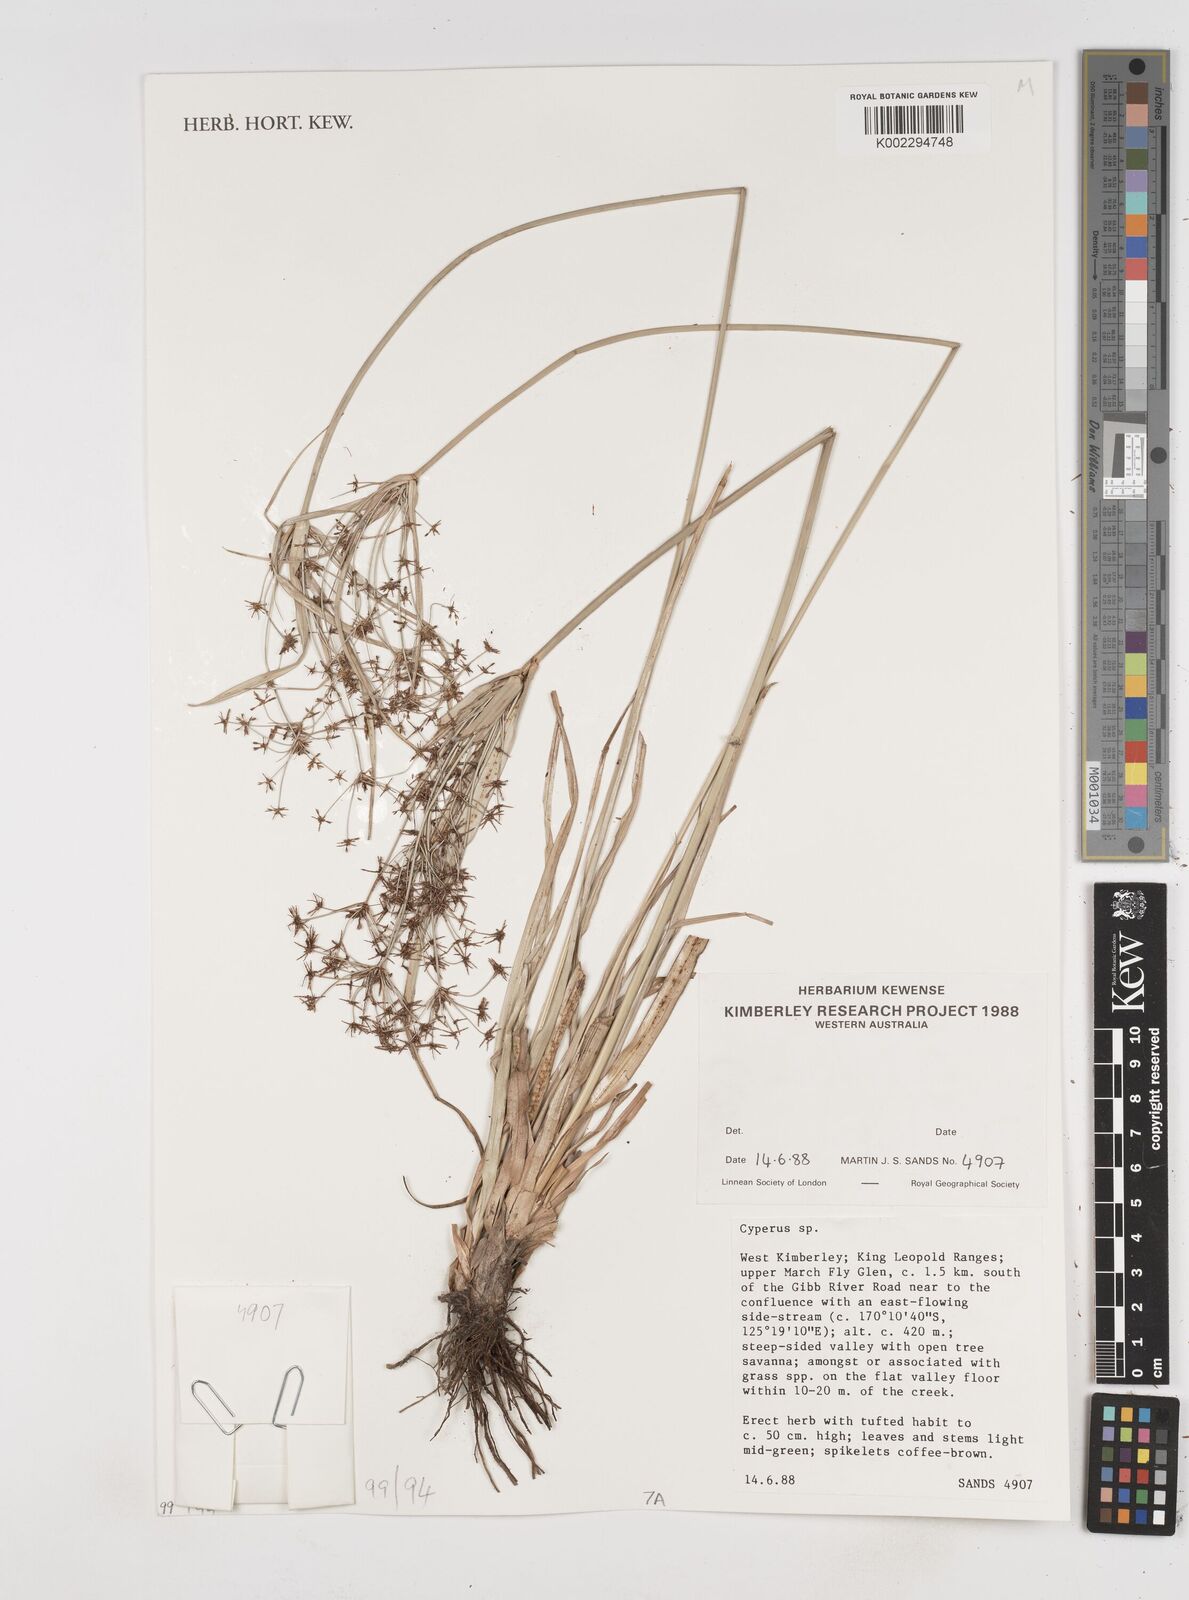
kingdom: Plantae
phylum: Tracheophyta
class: Liliopsida
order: Poales
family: Cyperaceae
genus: Cyperus
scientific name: Cyperus
